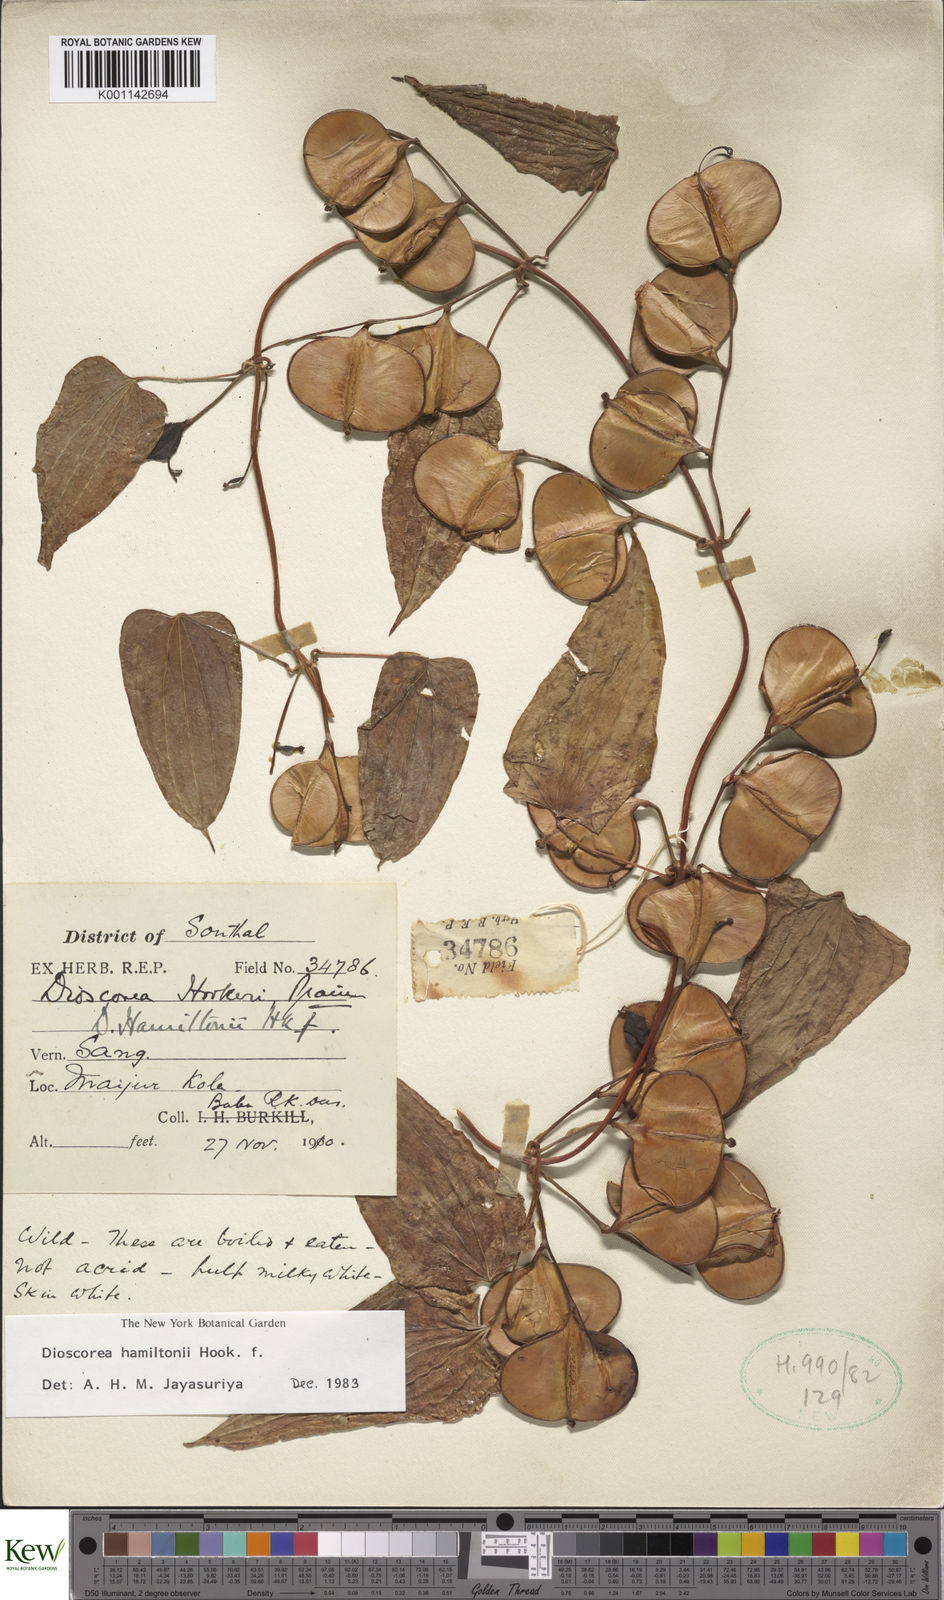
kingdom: Plantae
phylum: Tracheophyta
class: Liliopsida
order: Dioscoreales
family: Dioscoreaceae
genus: Dioscorea
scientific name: Dioscorea hamiltonii
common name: Mountain yam
